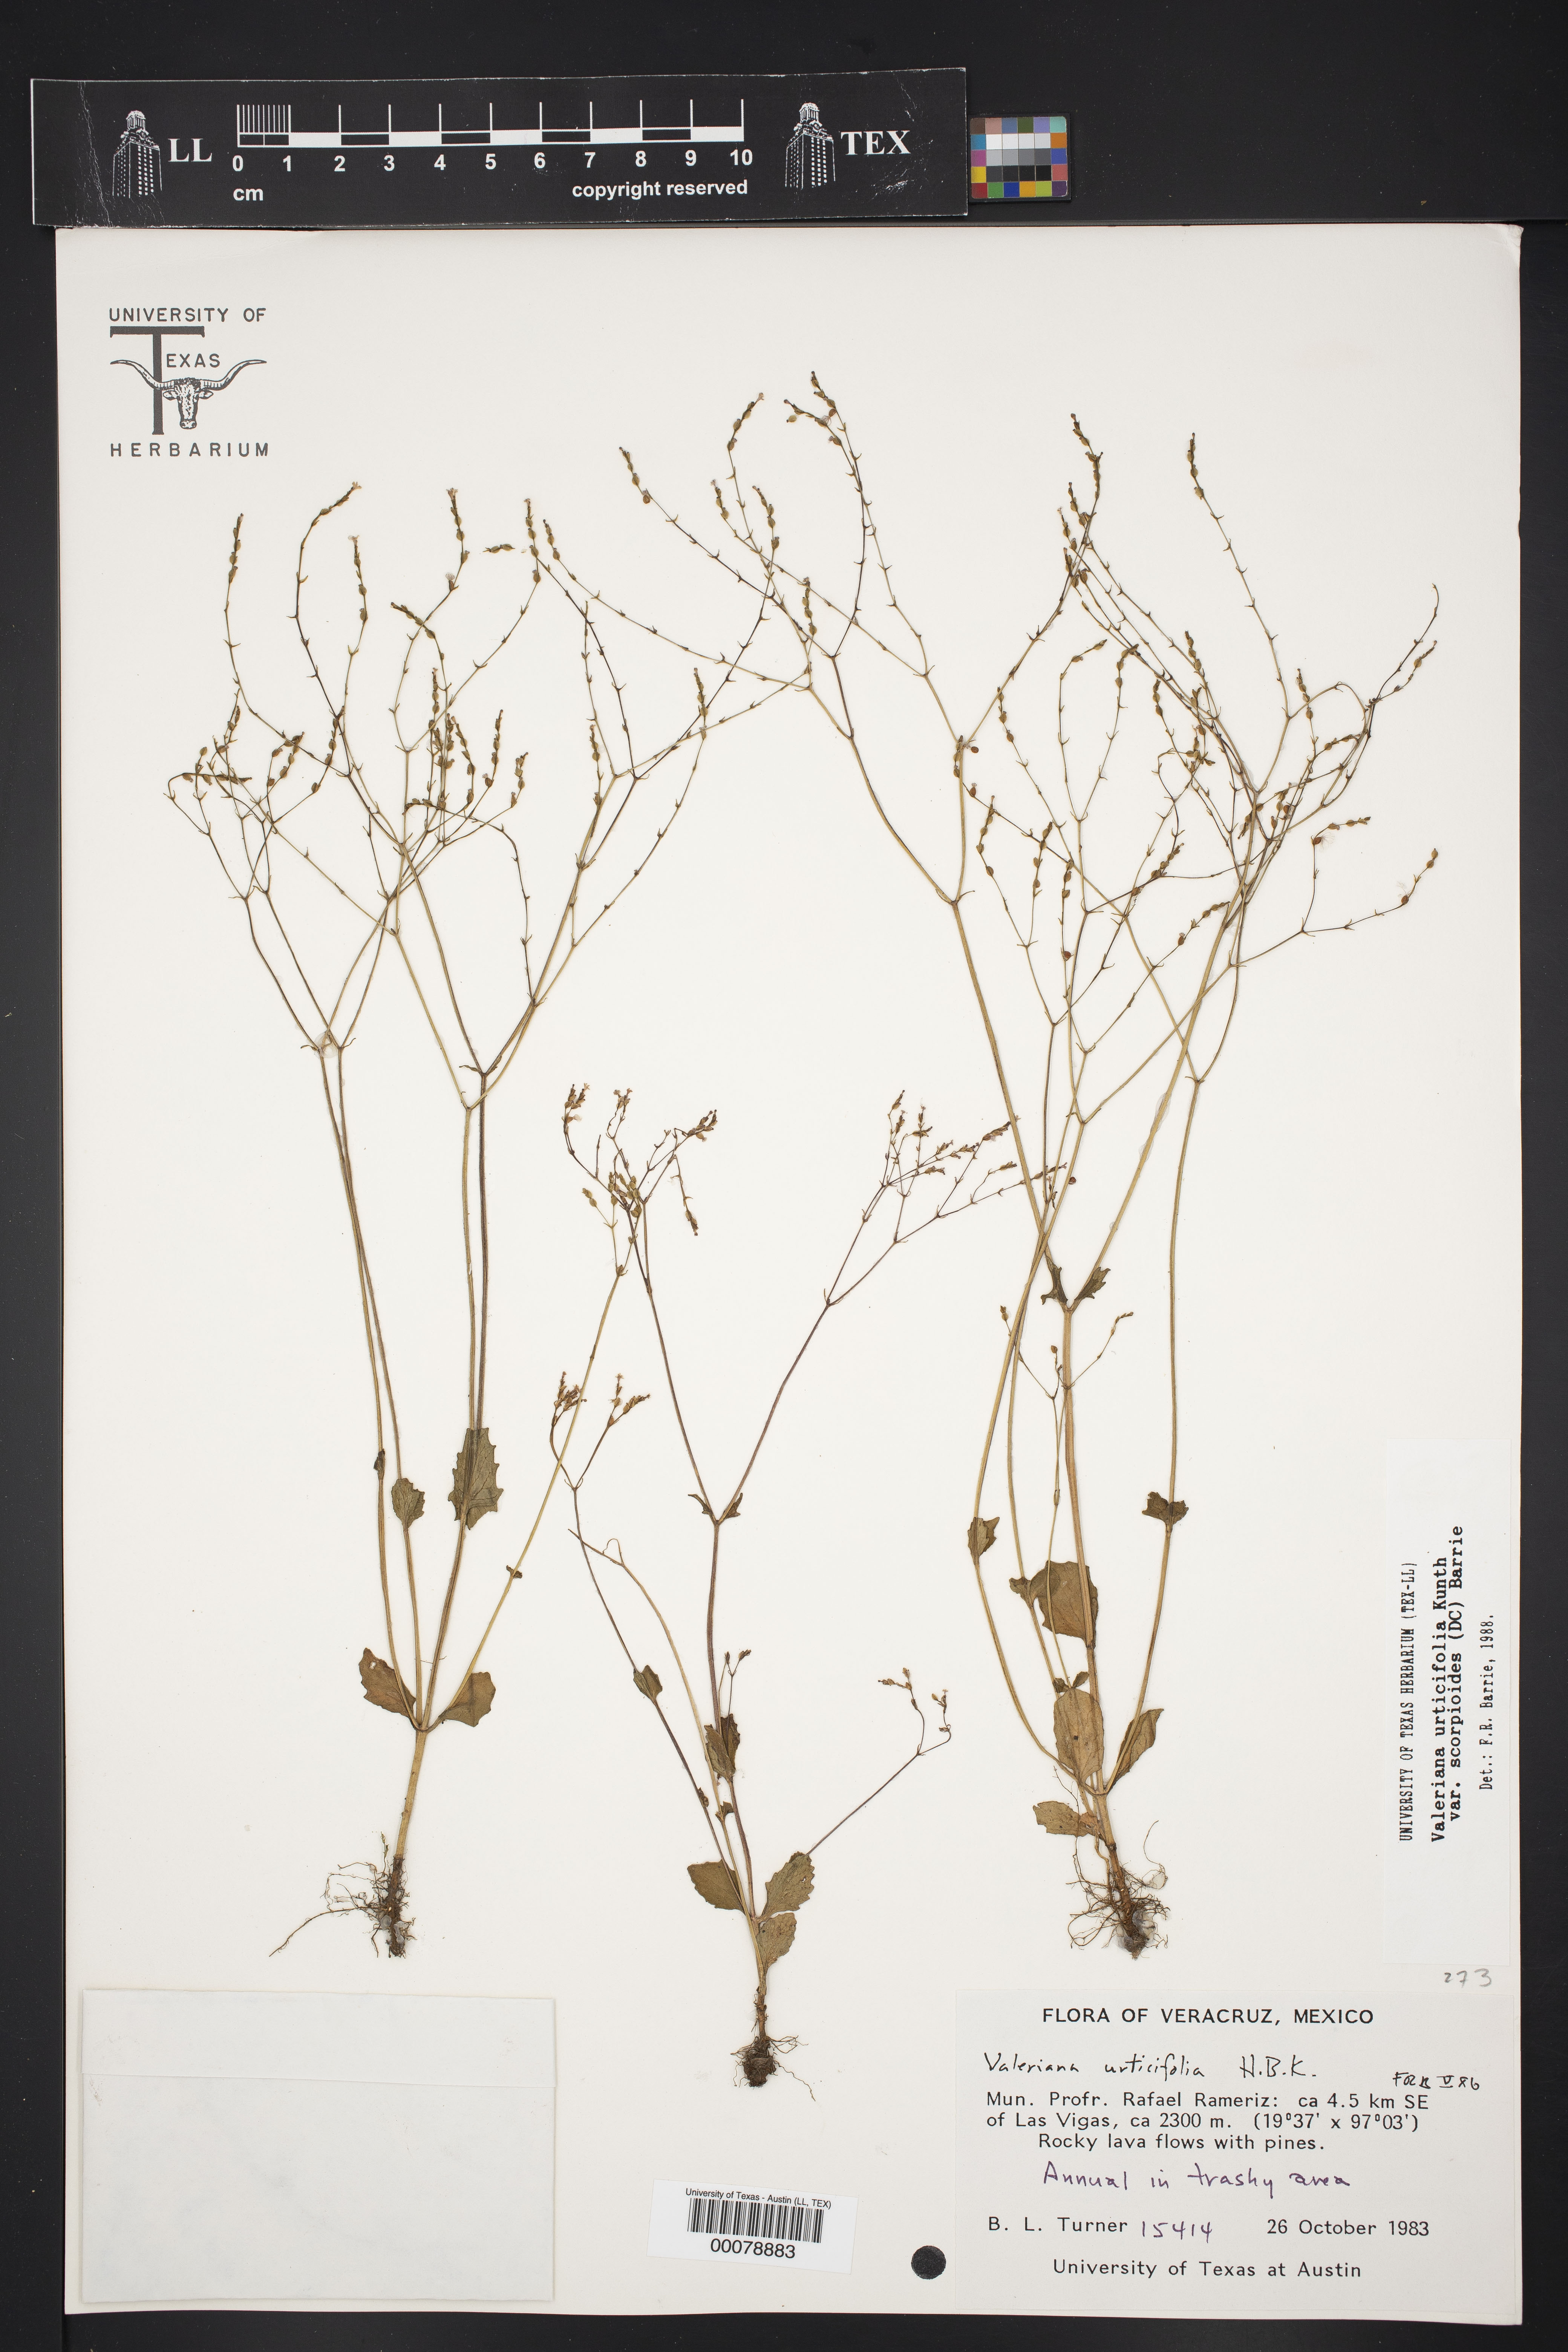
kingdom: Plantae
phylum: Tracheophyta
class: Magnoliopsida
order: Dipsacales
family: Caprifoliaceae
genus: Valeriana
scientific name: Valeriana urticifolia
